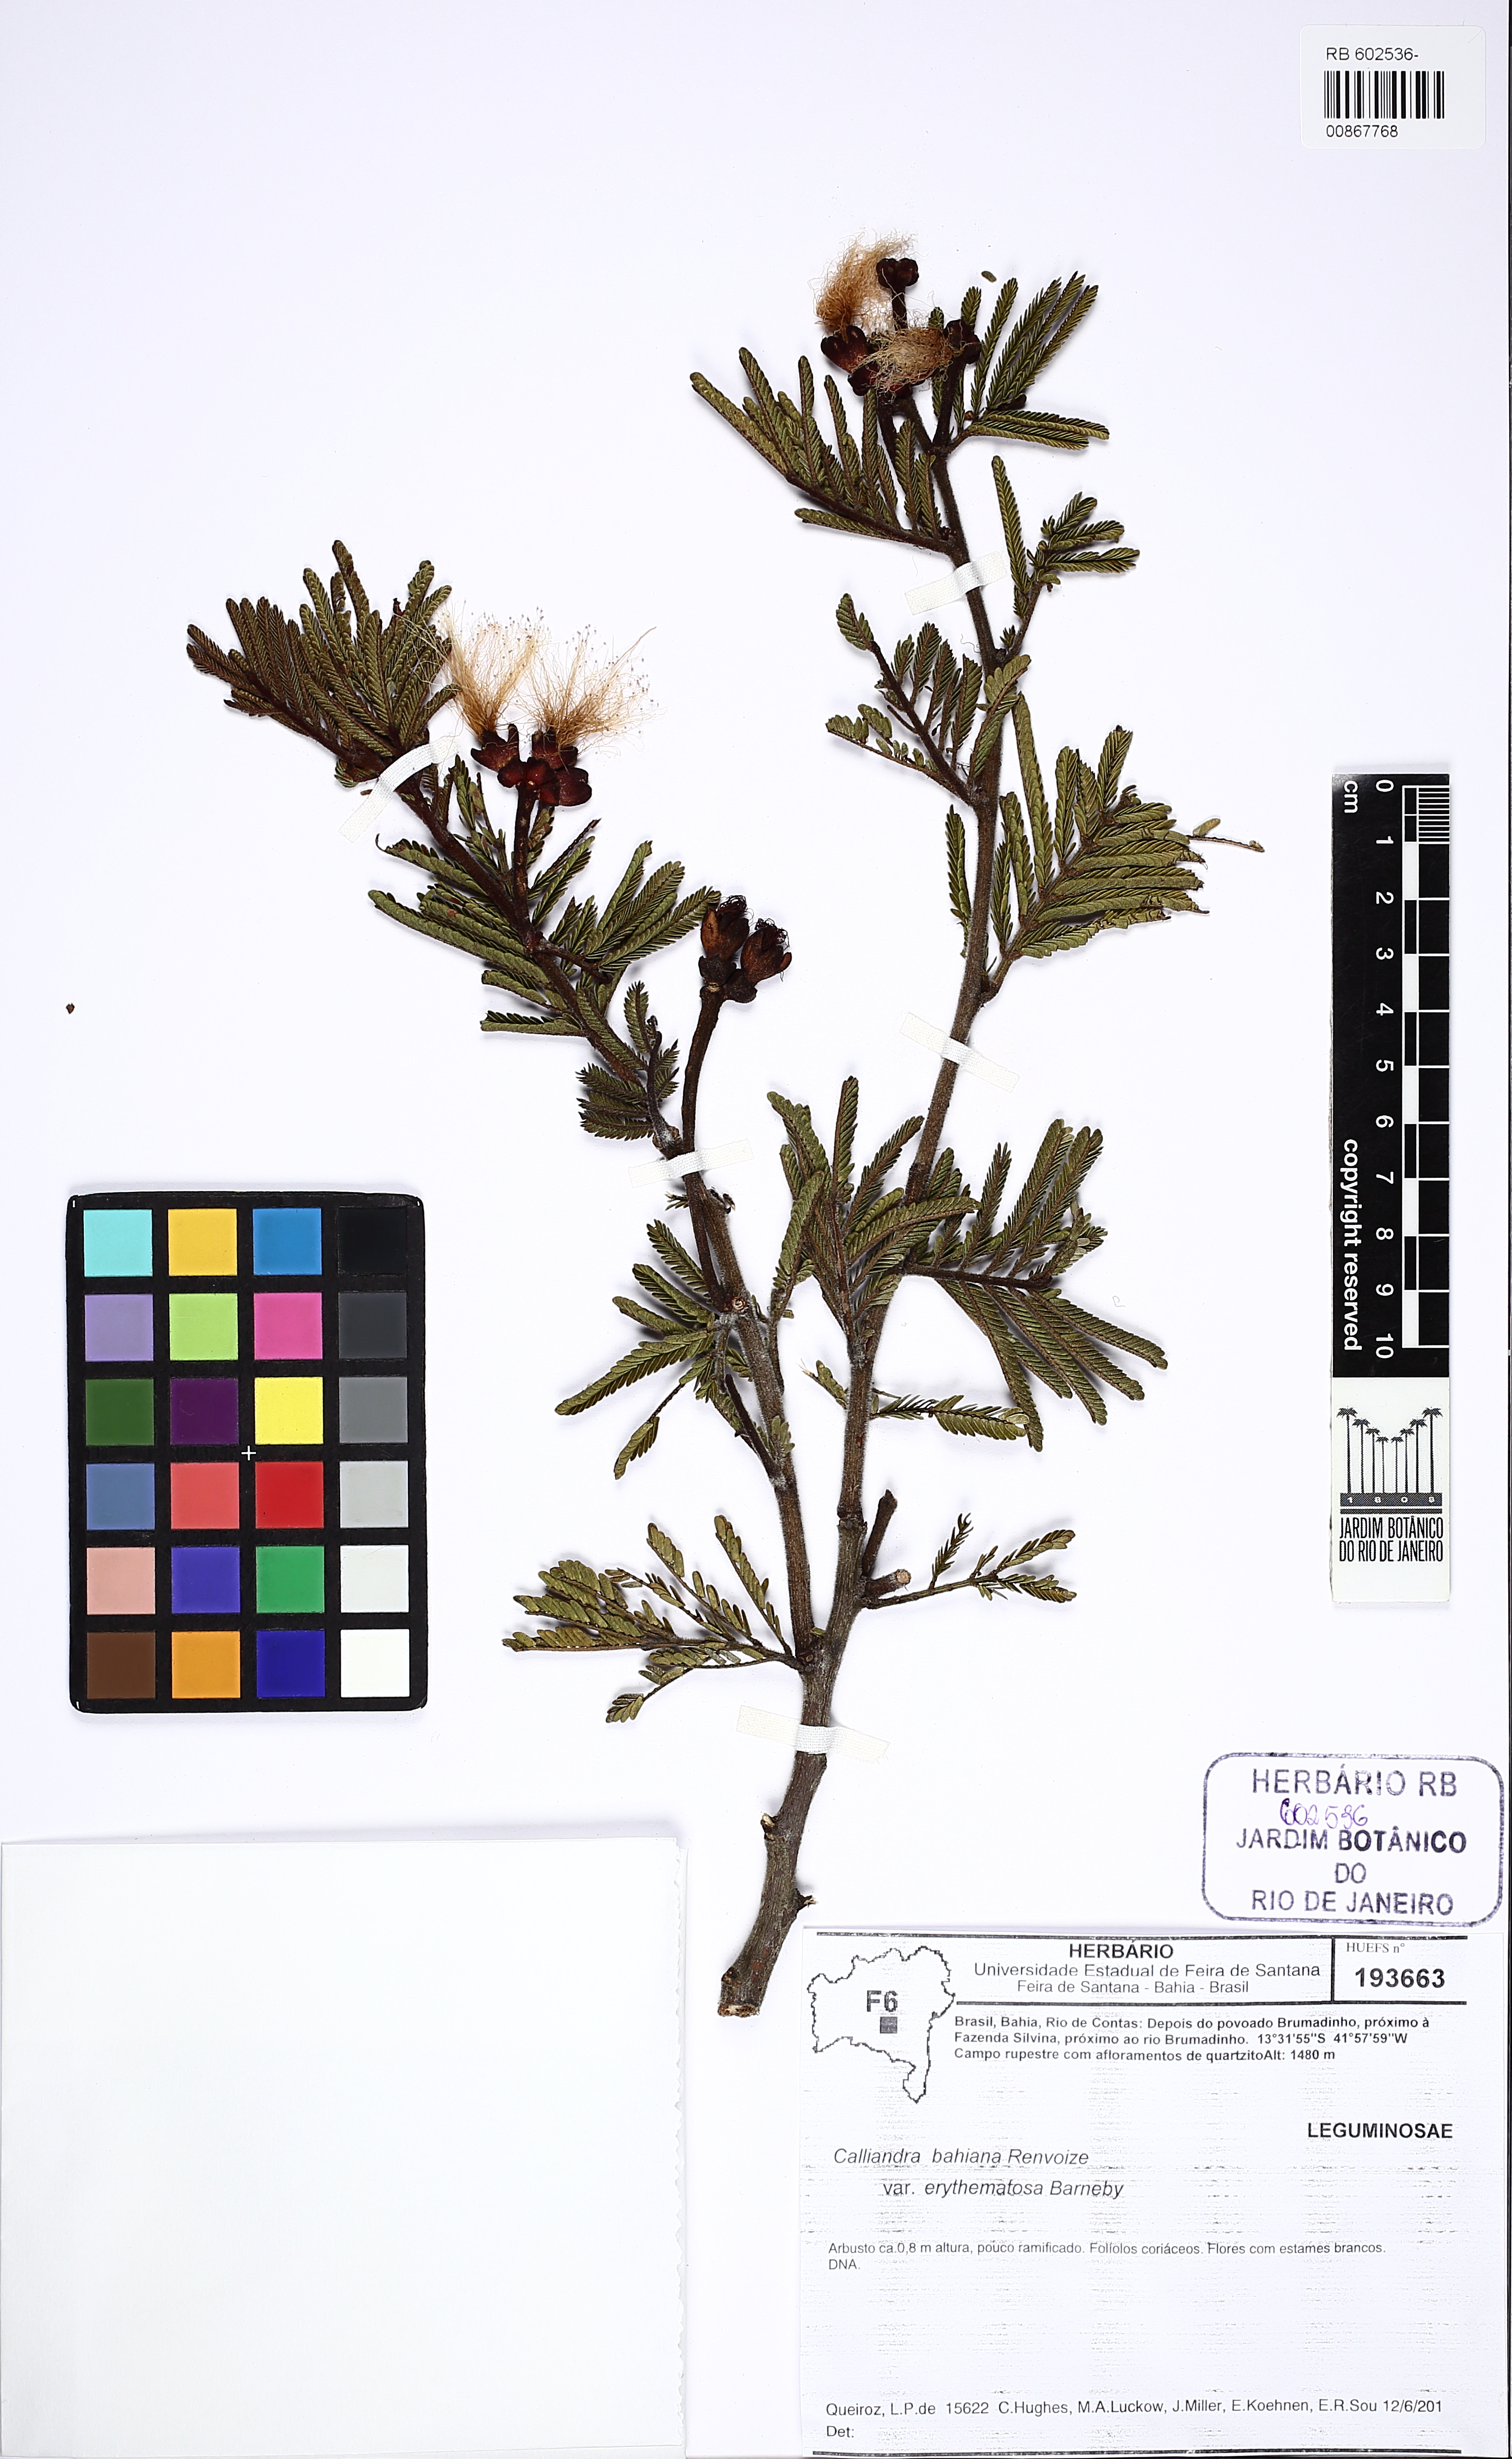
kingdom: Plantae
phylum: Tracheophyta
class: Magnoliopsida
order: Fabales
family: Fabaceae
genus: Calliandra
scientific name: Calliandra bahiana
